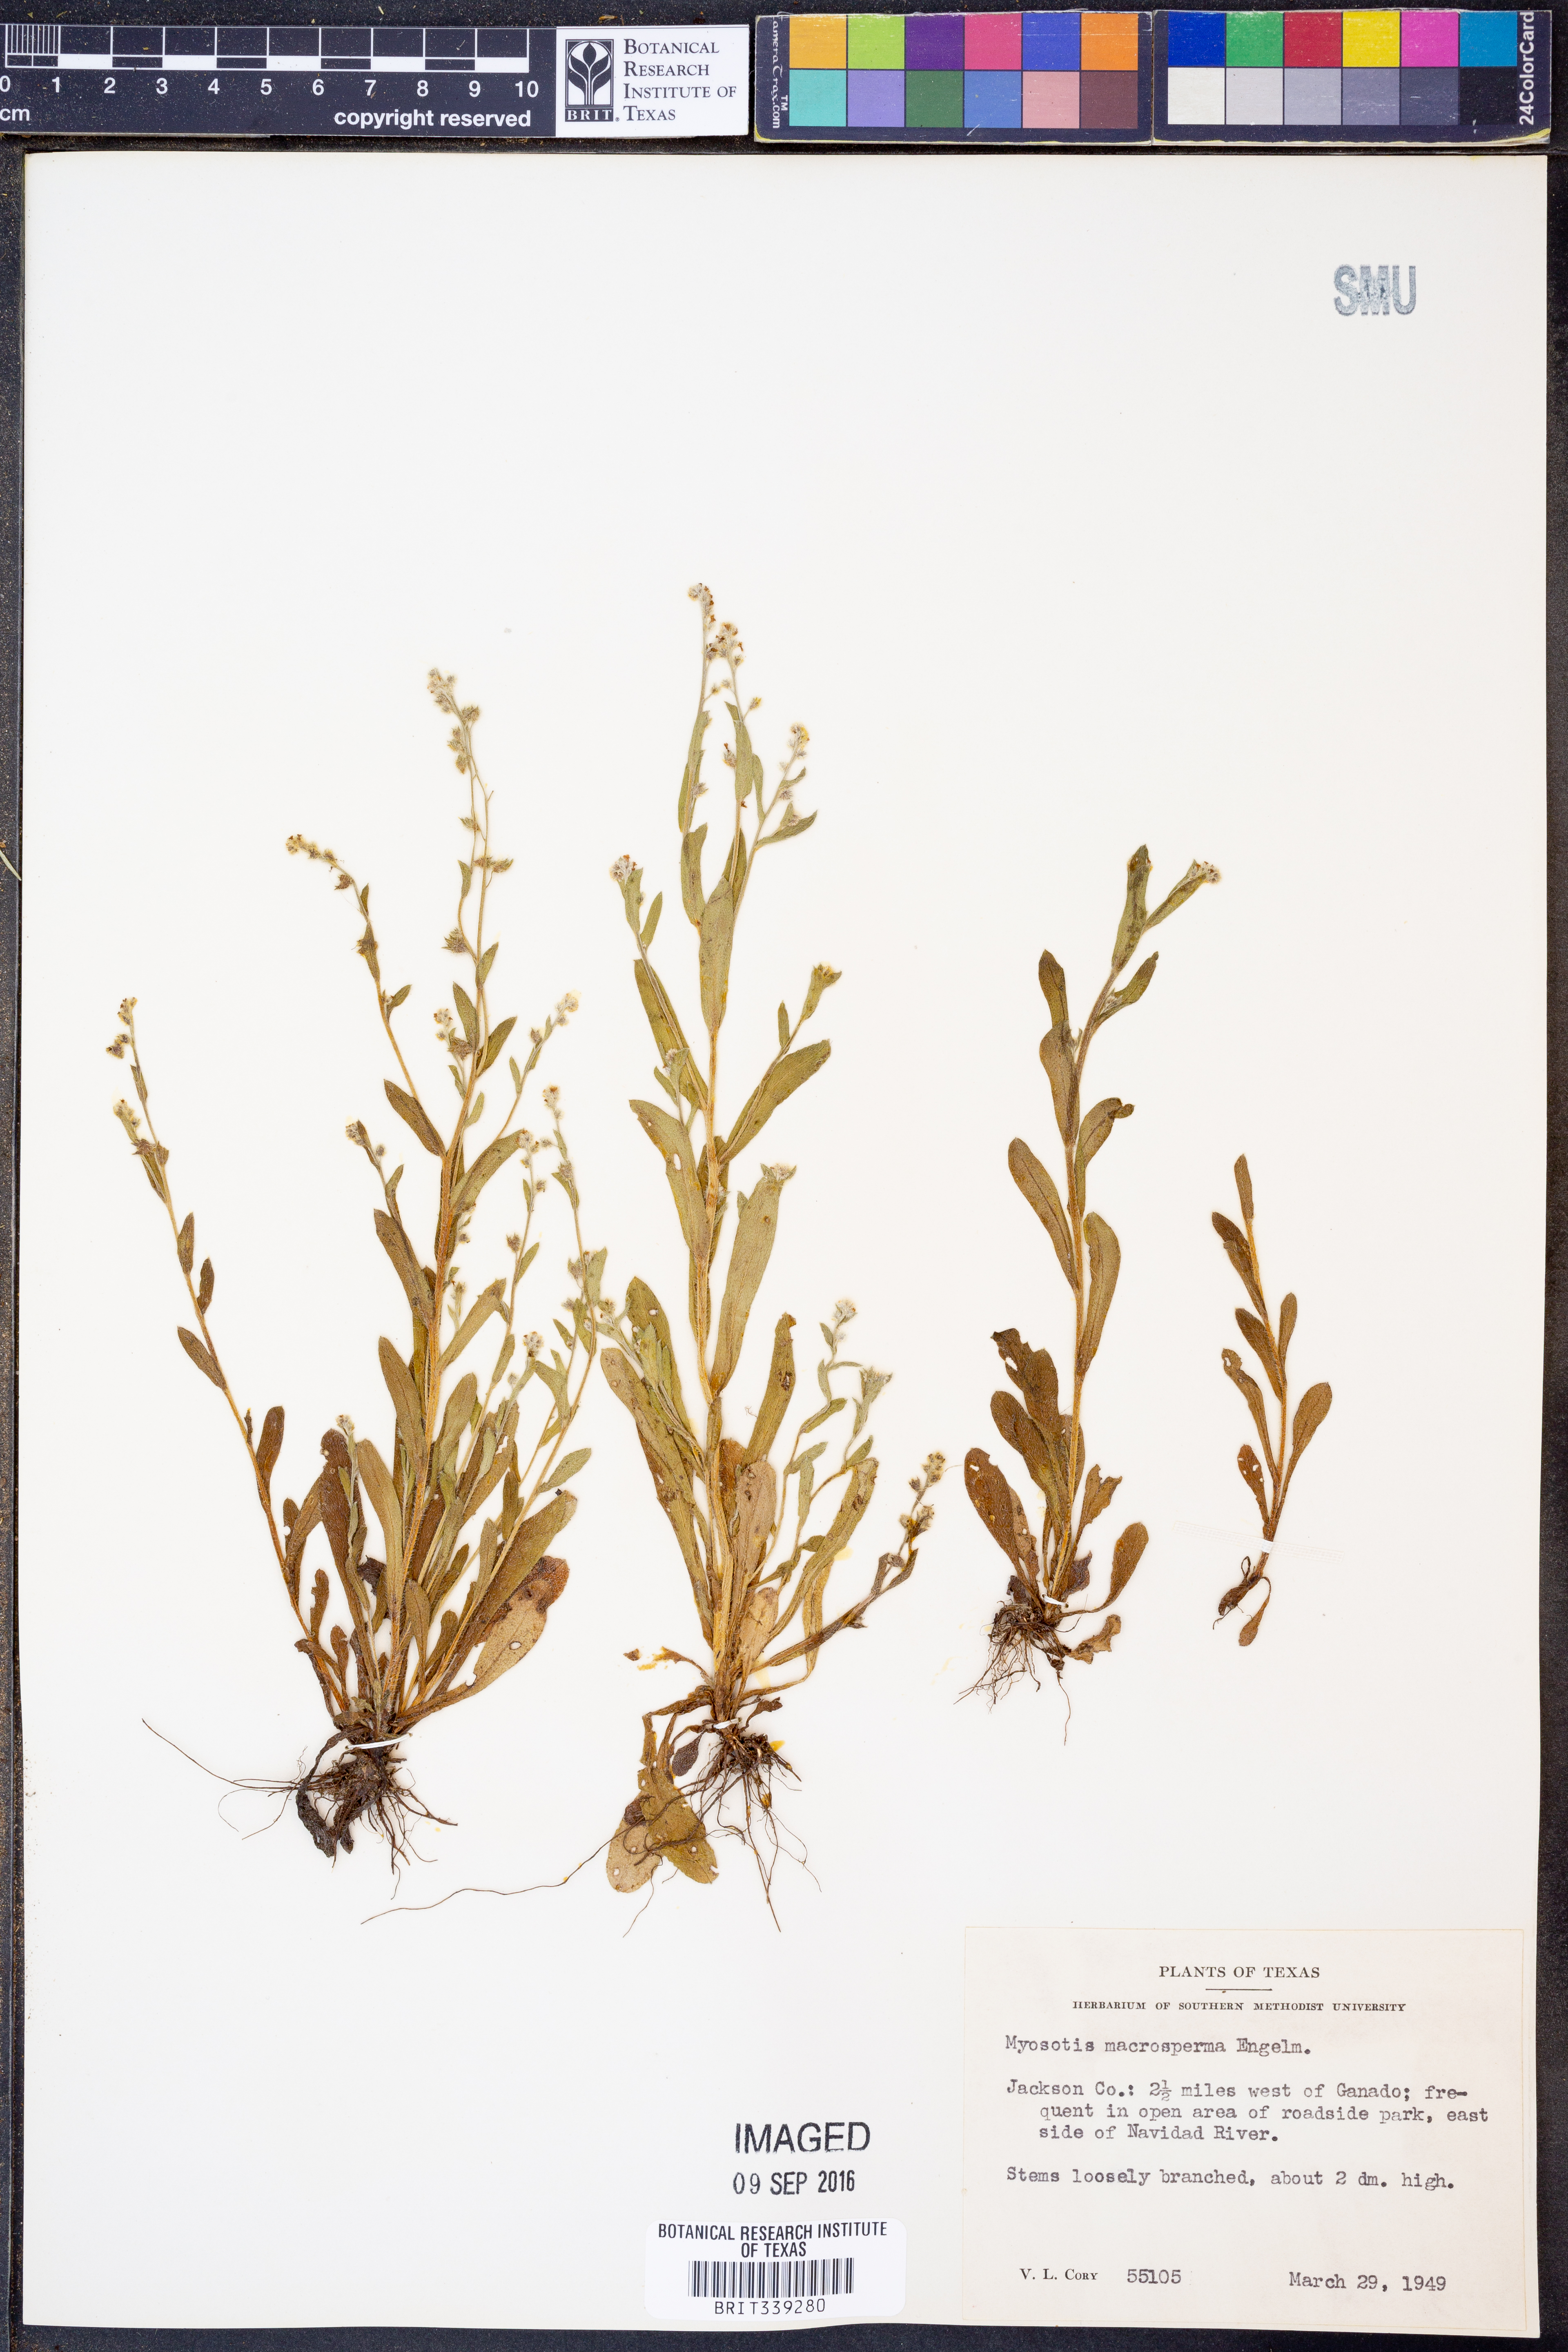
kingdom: Plantae
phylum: Tracheophyta
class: Magnoliopsida
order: Boraginales
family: Boraginaceae
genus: Myosotis
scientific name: Myosotis macrosperma
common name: Large-seed forget-me-not
